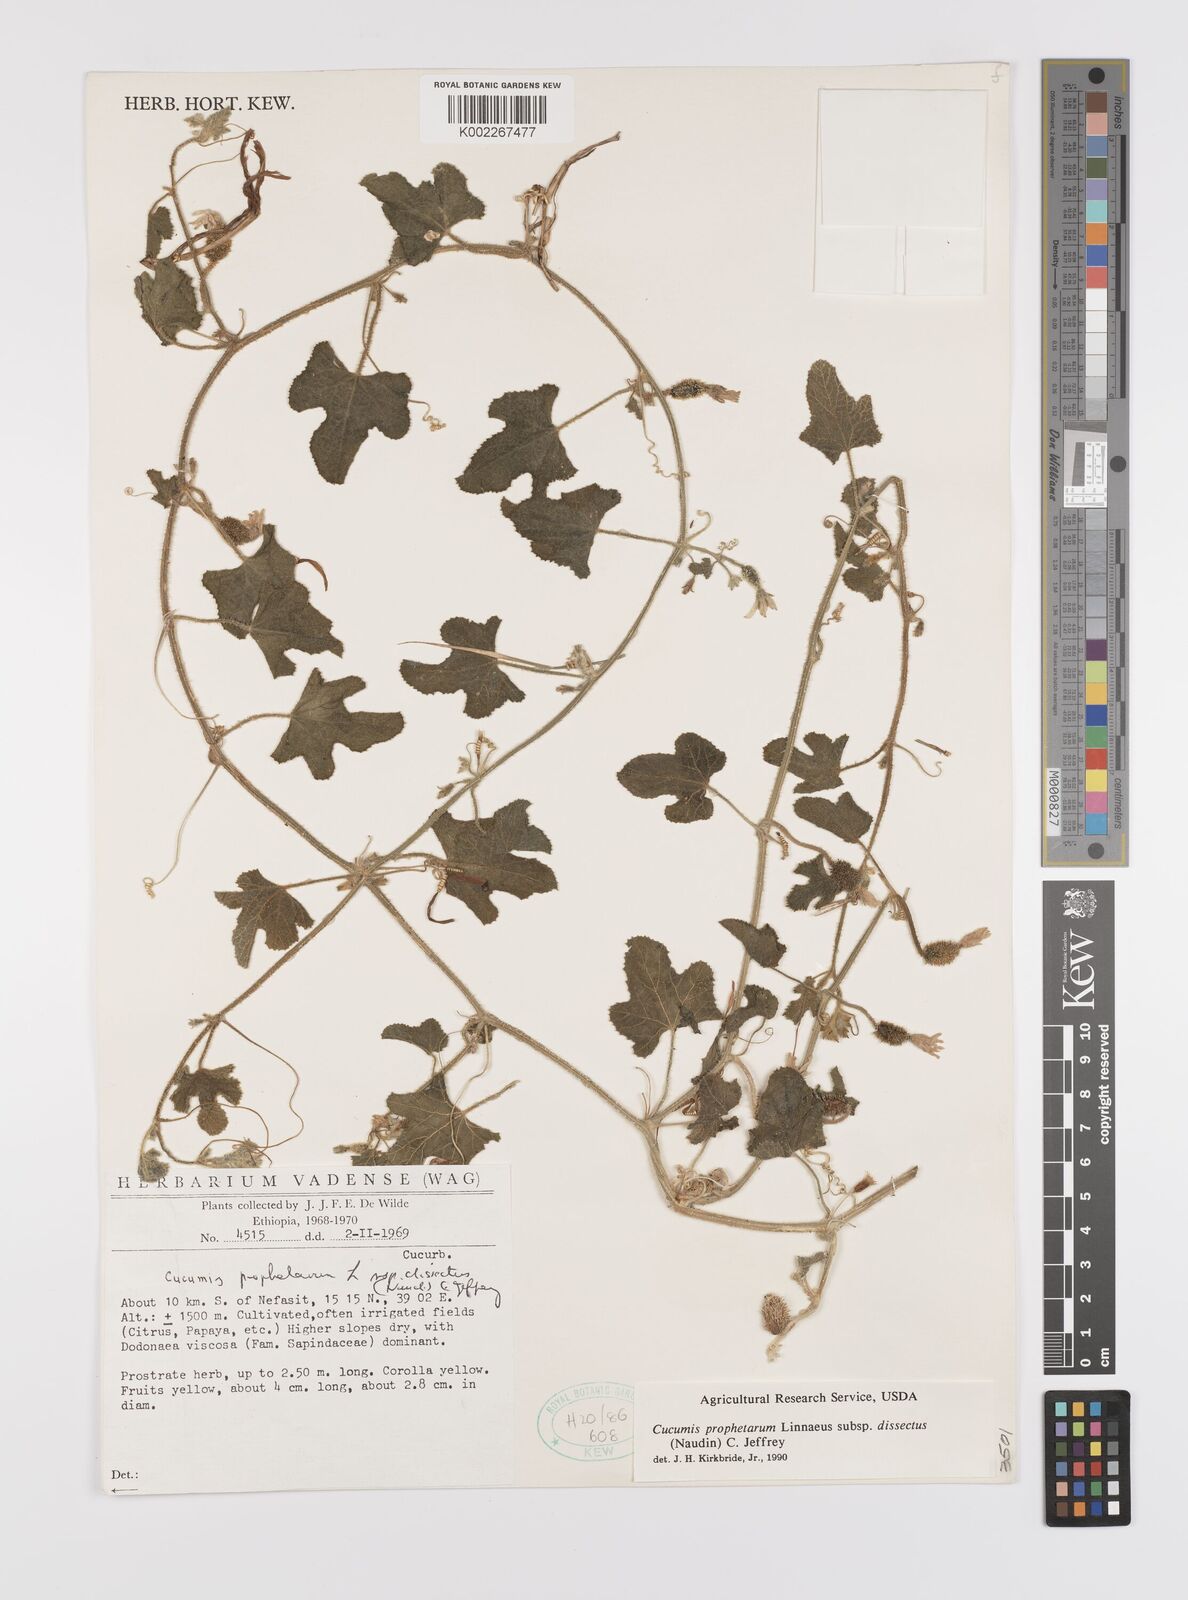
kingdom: Plantae
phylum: Tracheophyta
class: Magnoliopsida
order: Cucurbitales
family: Cucurbitaceae
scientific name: Cucurbitaceae
